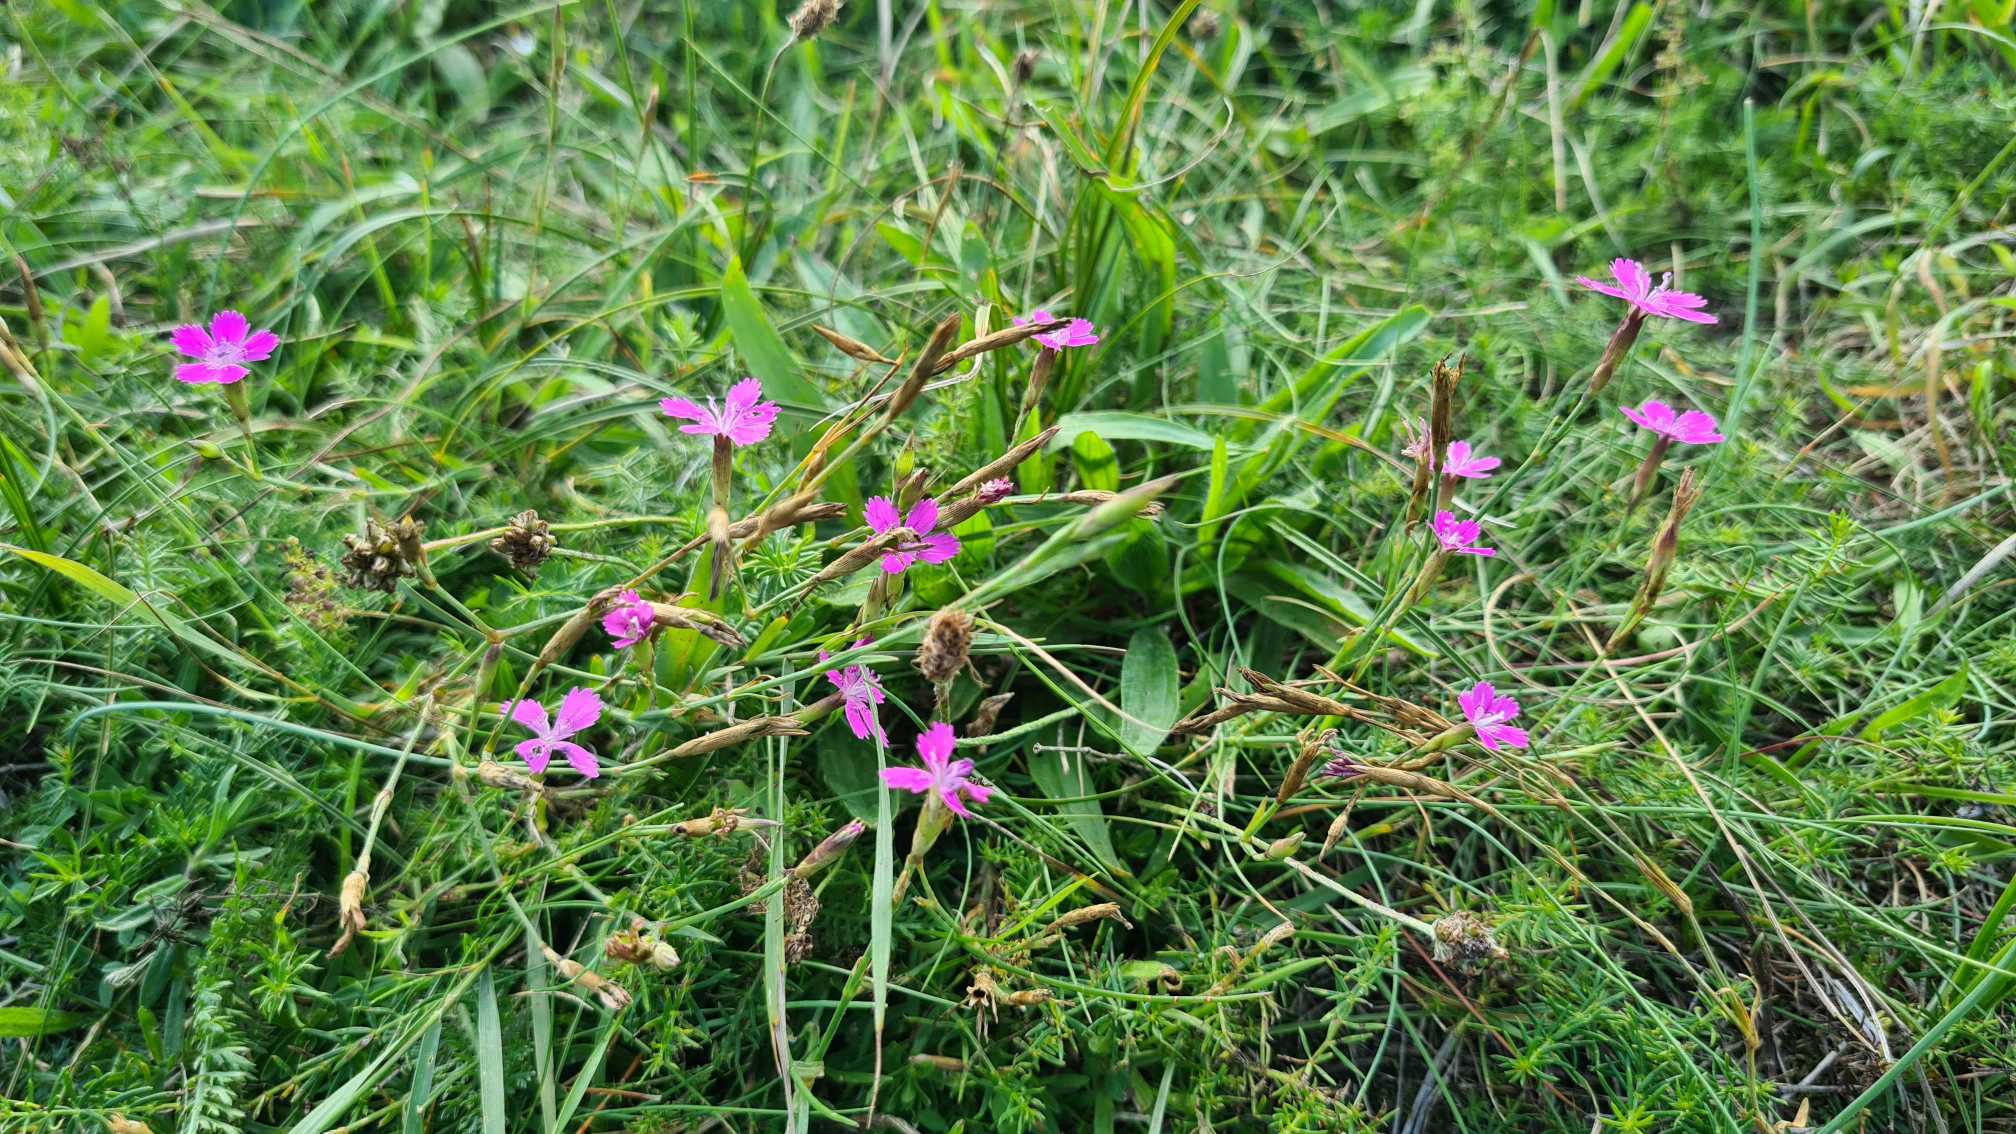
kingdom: Plantae
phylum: Tracheophyta
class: Magnoliopsida
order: Caryophyllales
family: Caryophyllaceae
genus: Dianthus
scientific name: Dianthus deltoides
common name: Bakke-nellike
